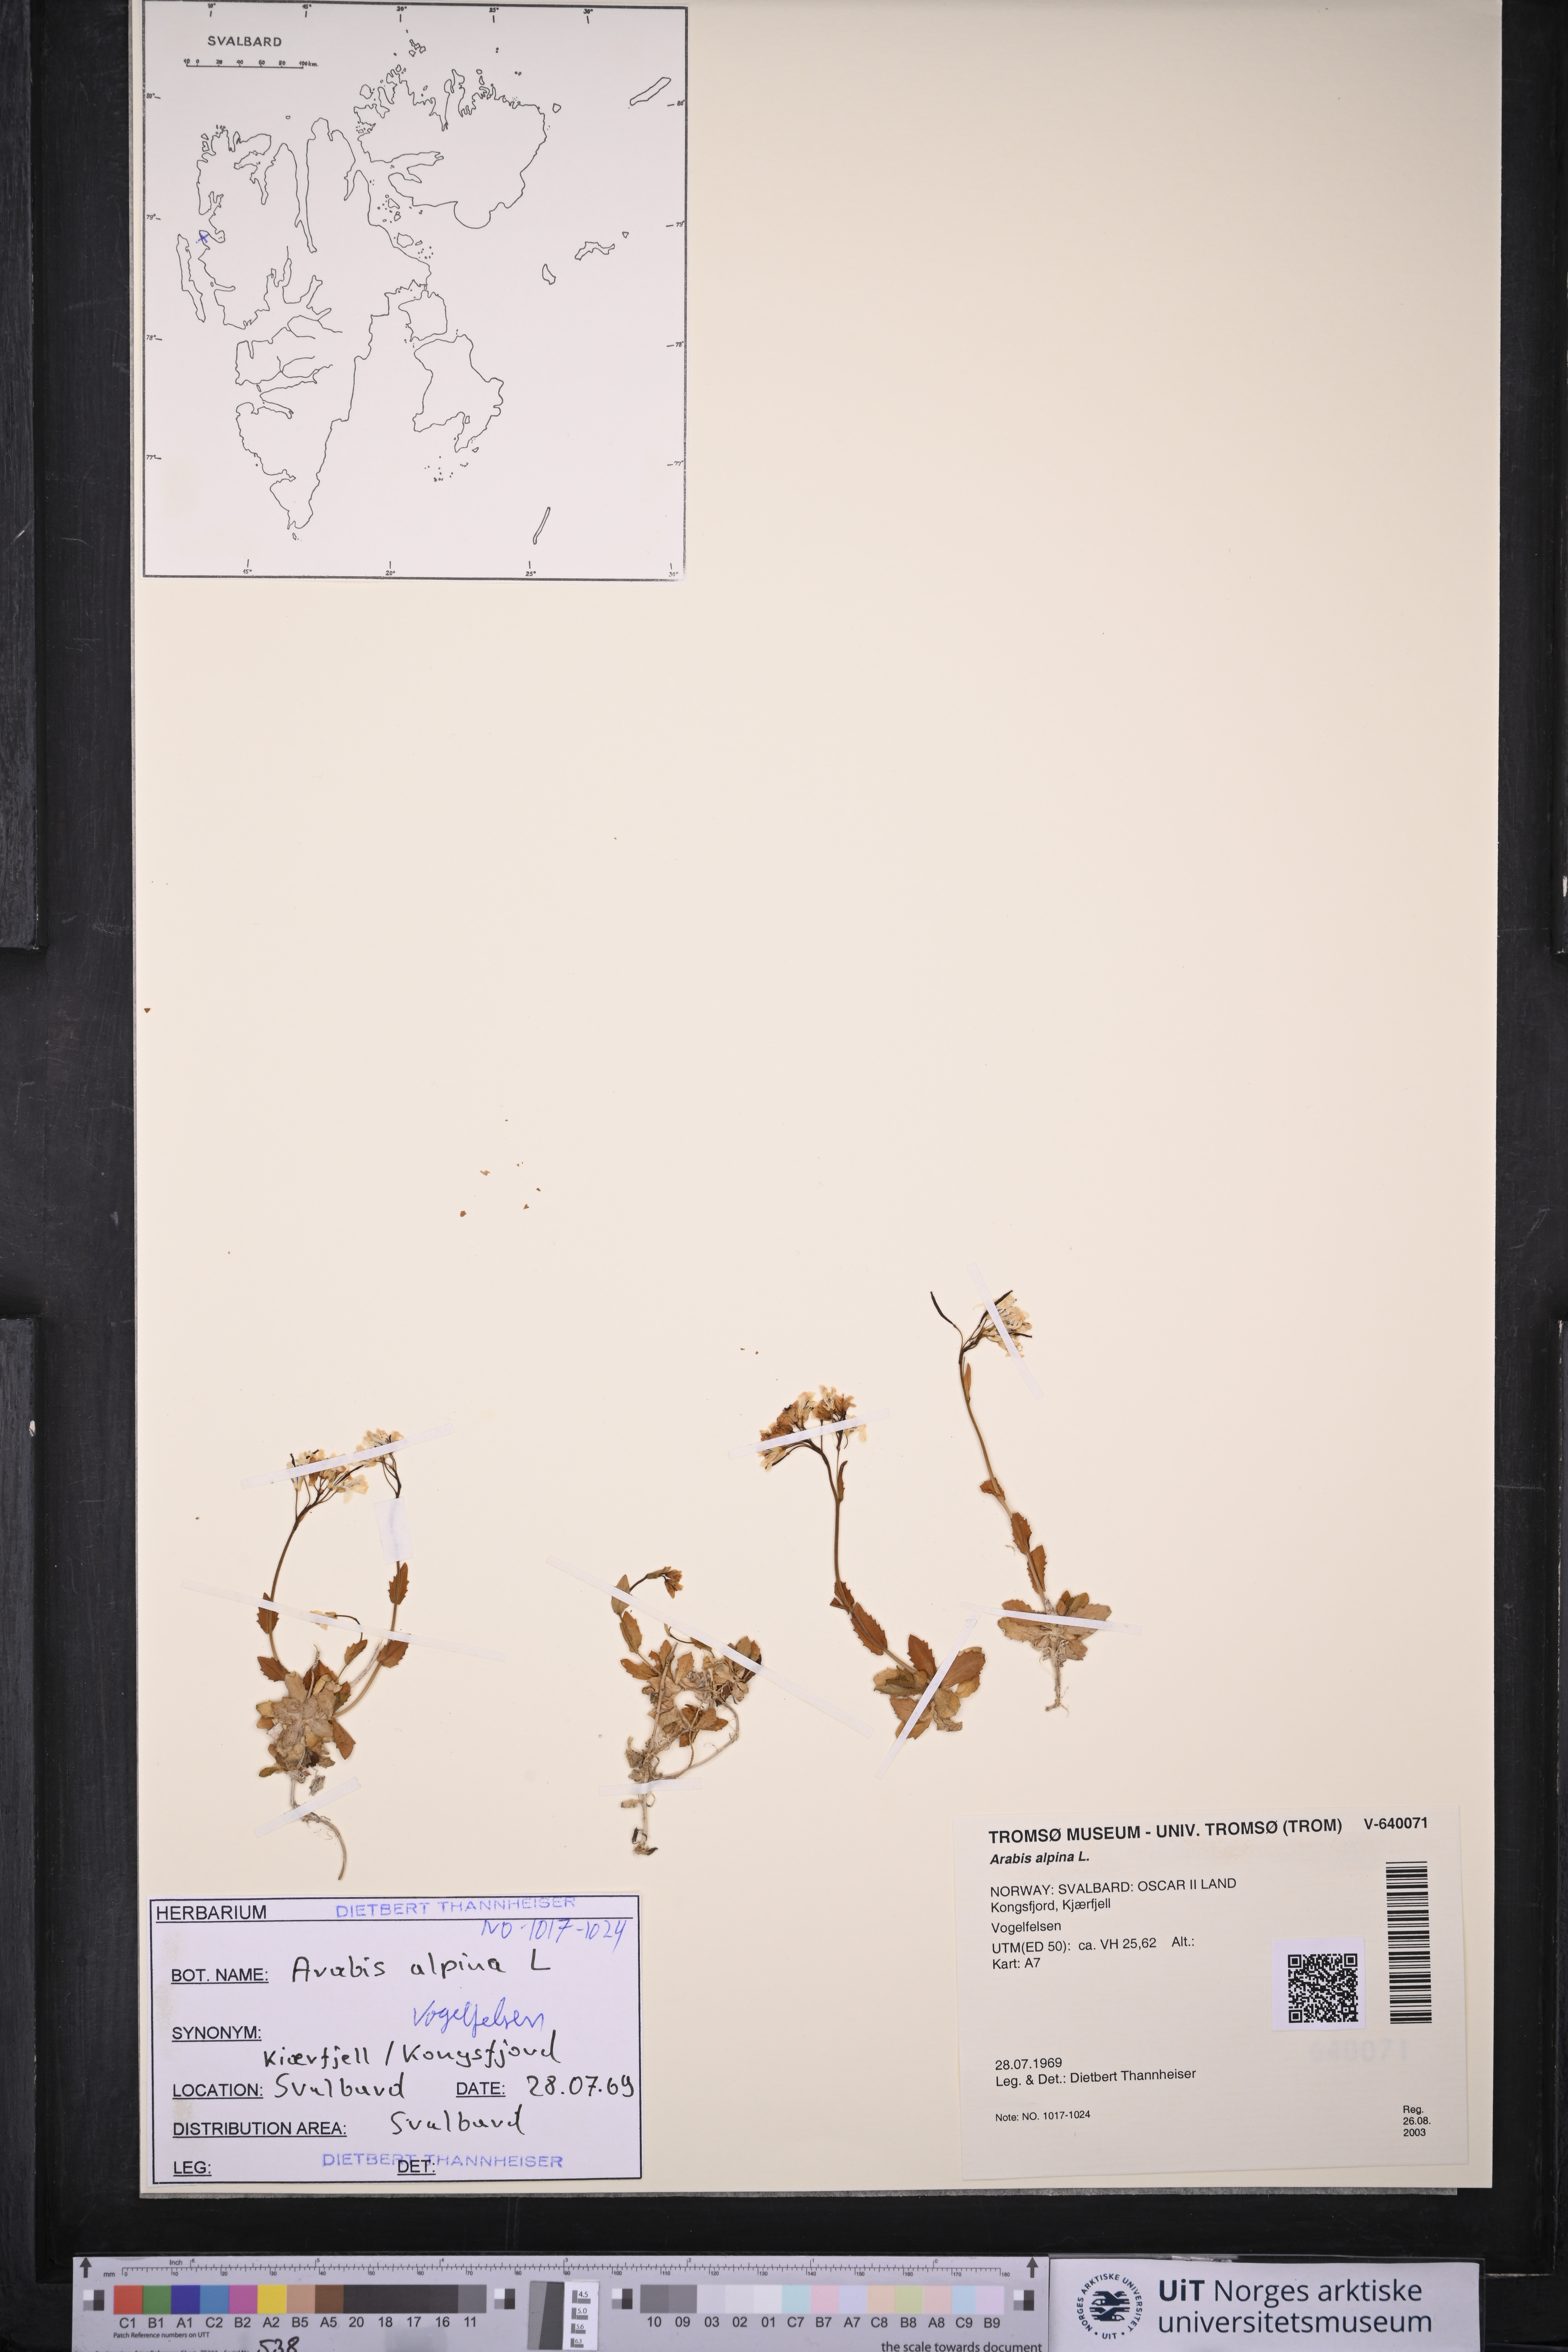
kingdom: Plantae
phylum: Tracheophyta
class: Magnoliopsida
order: Brassicales
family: Brassicaceae
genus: Arabis
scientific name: Arabis alpina
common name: Alpine rock-cress
